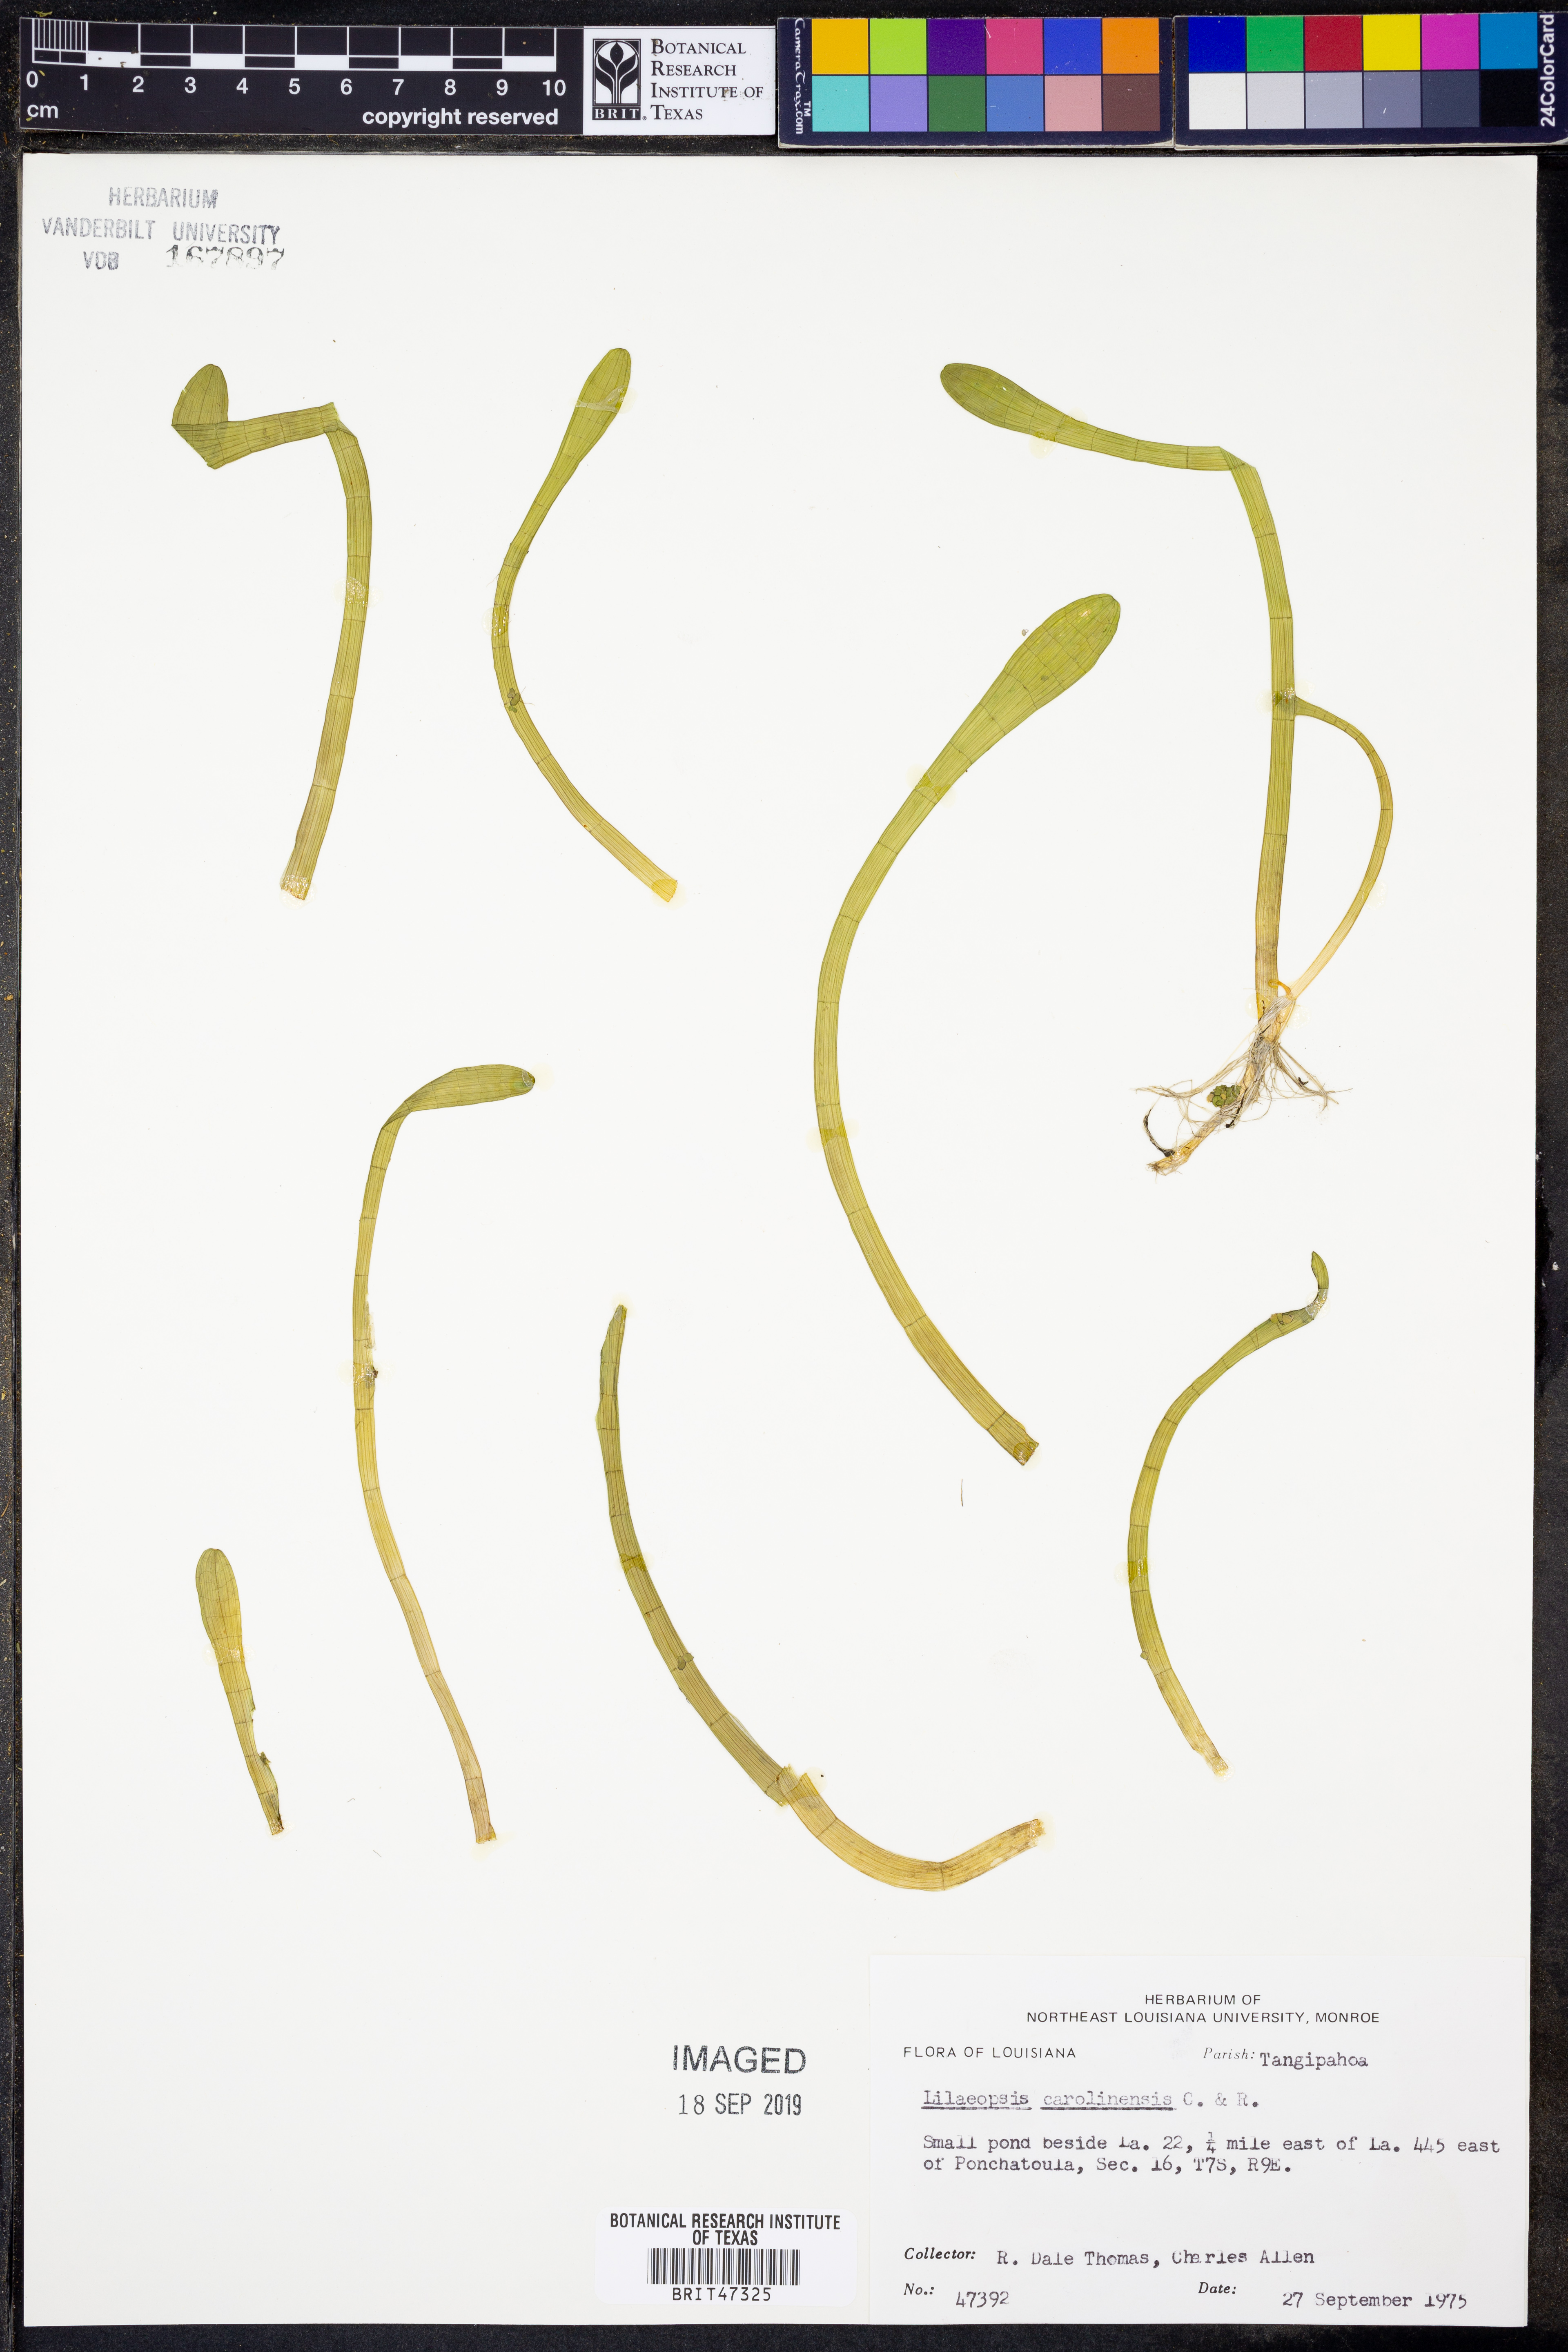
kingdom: Plantae
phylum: Tracheophyta
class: Magnoliopsida
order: Apiales
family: Apiaceae
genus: Lilaeopsis
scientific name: Lilaeopsis carolinensis
